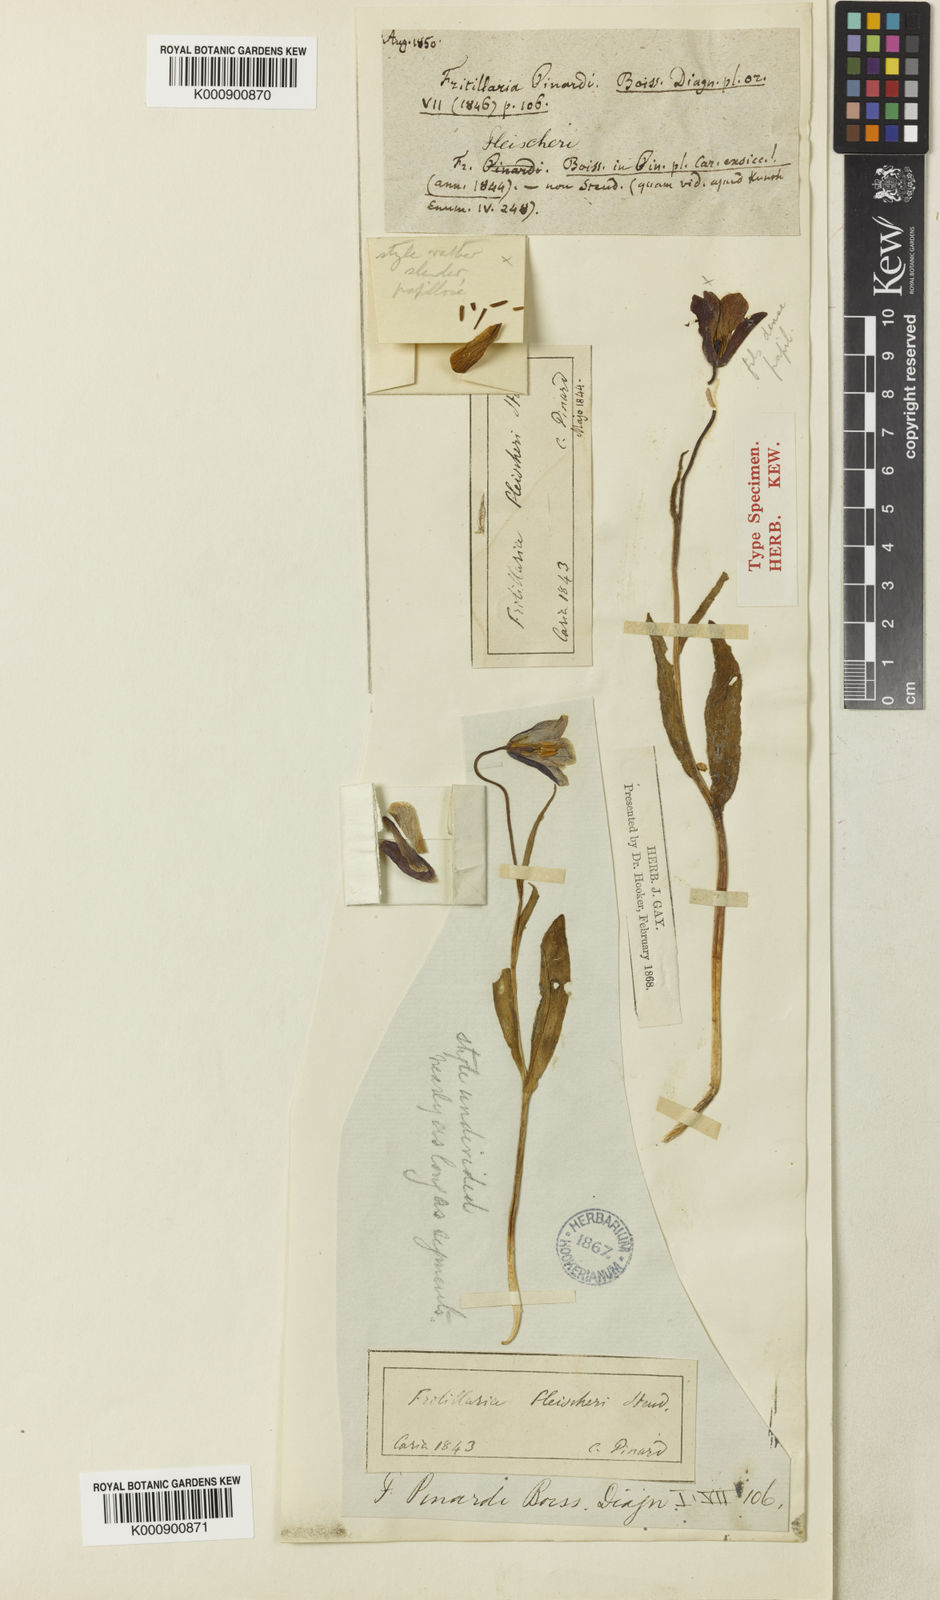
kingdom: Plantae
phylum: Tracheophyta
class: Liliopsida
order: Liliales
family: Liliaceae
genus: Fritillaria
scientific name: Fritillaria fleischeriana
